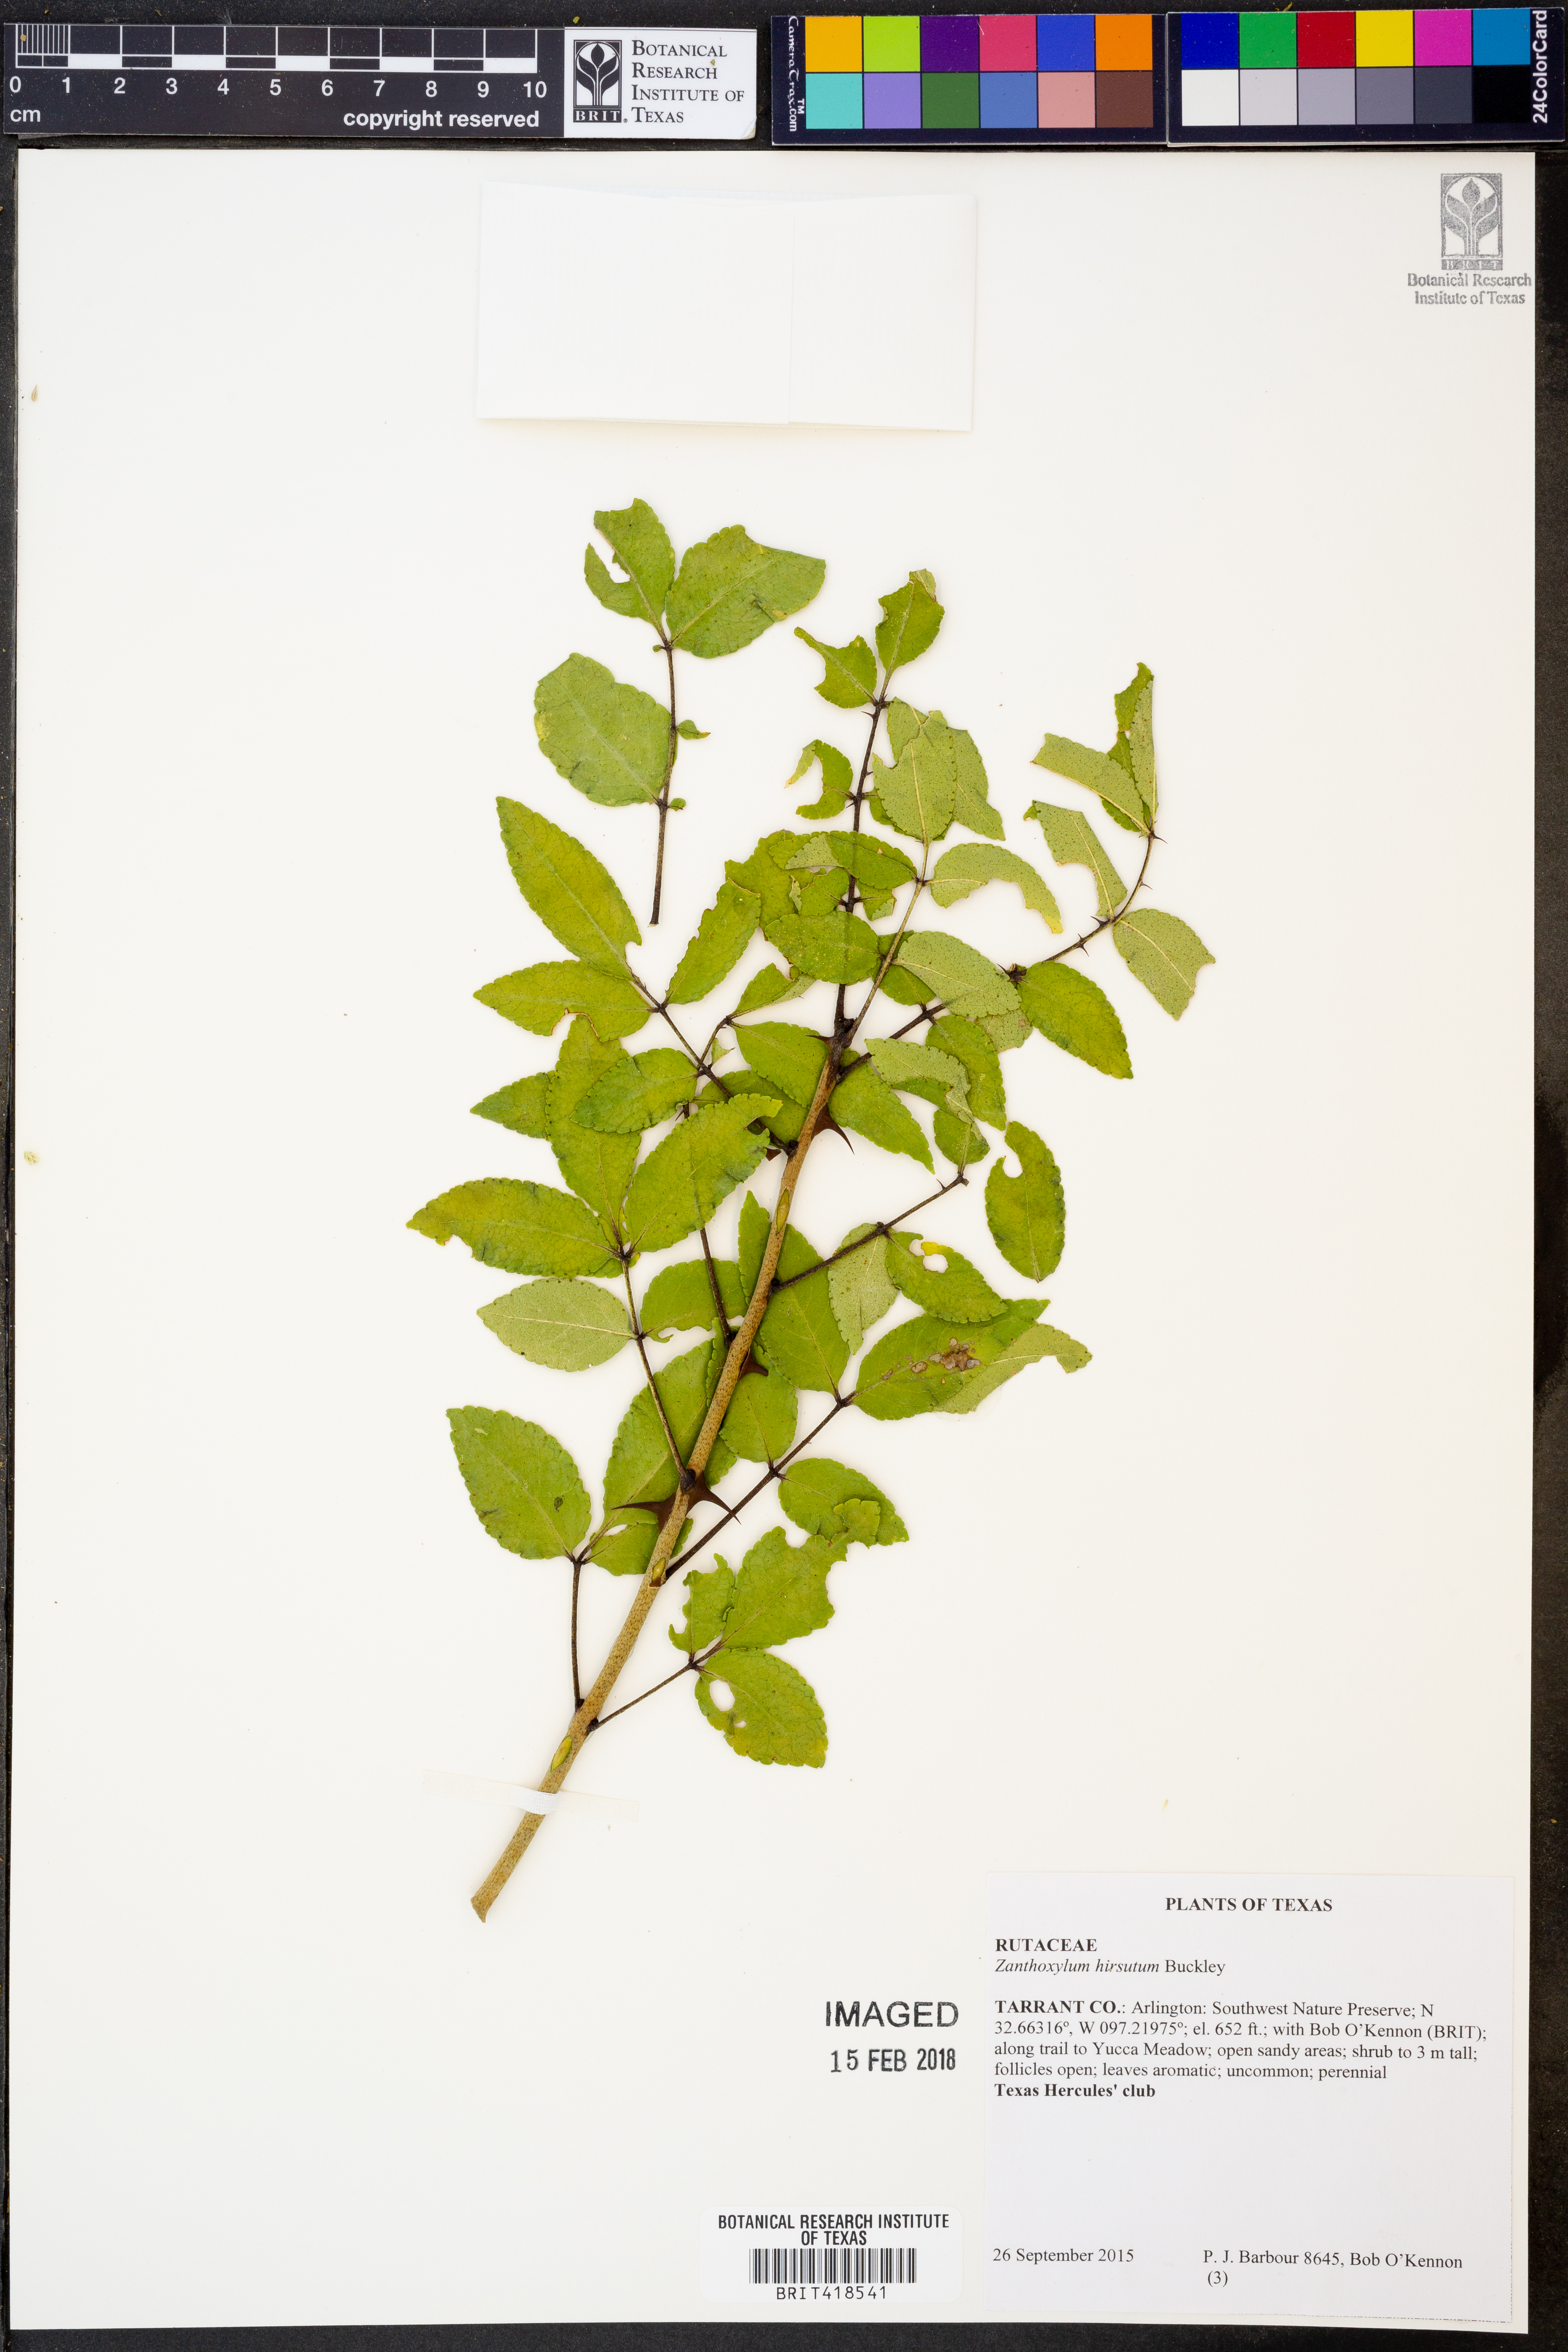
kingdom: Plantae
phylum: Tracheophyta
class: Magnoliopsida
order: Sapindales
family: Rutaceae
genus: Zanthoxylum
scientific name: Zanthoxylum clava-herculis
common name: Hercules'-club
